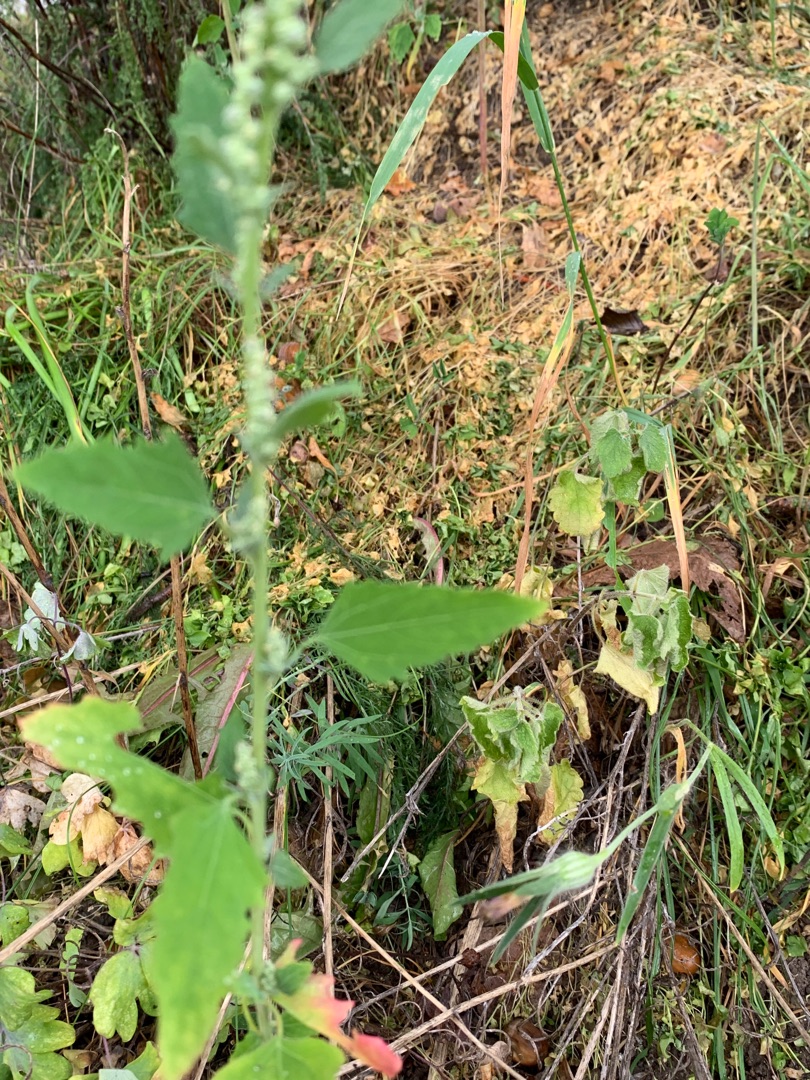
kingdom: Plantae
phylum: Tracheophyta
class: Magnoliopsida
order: Caryophyllales
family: Amaranthaceae
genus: Chenopodium
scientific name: Chenopodium album
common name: Hvidmelet gåsefod
